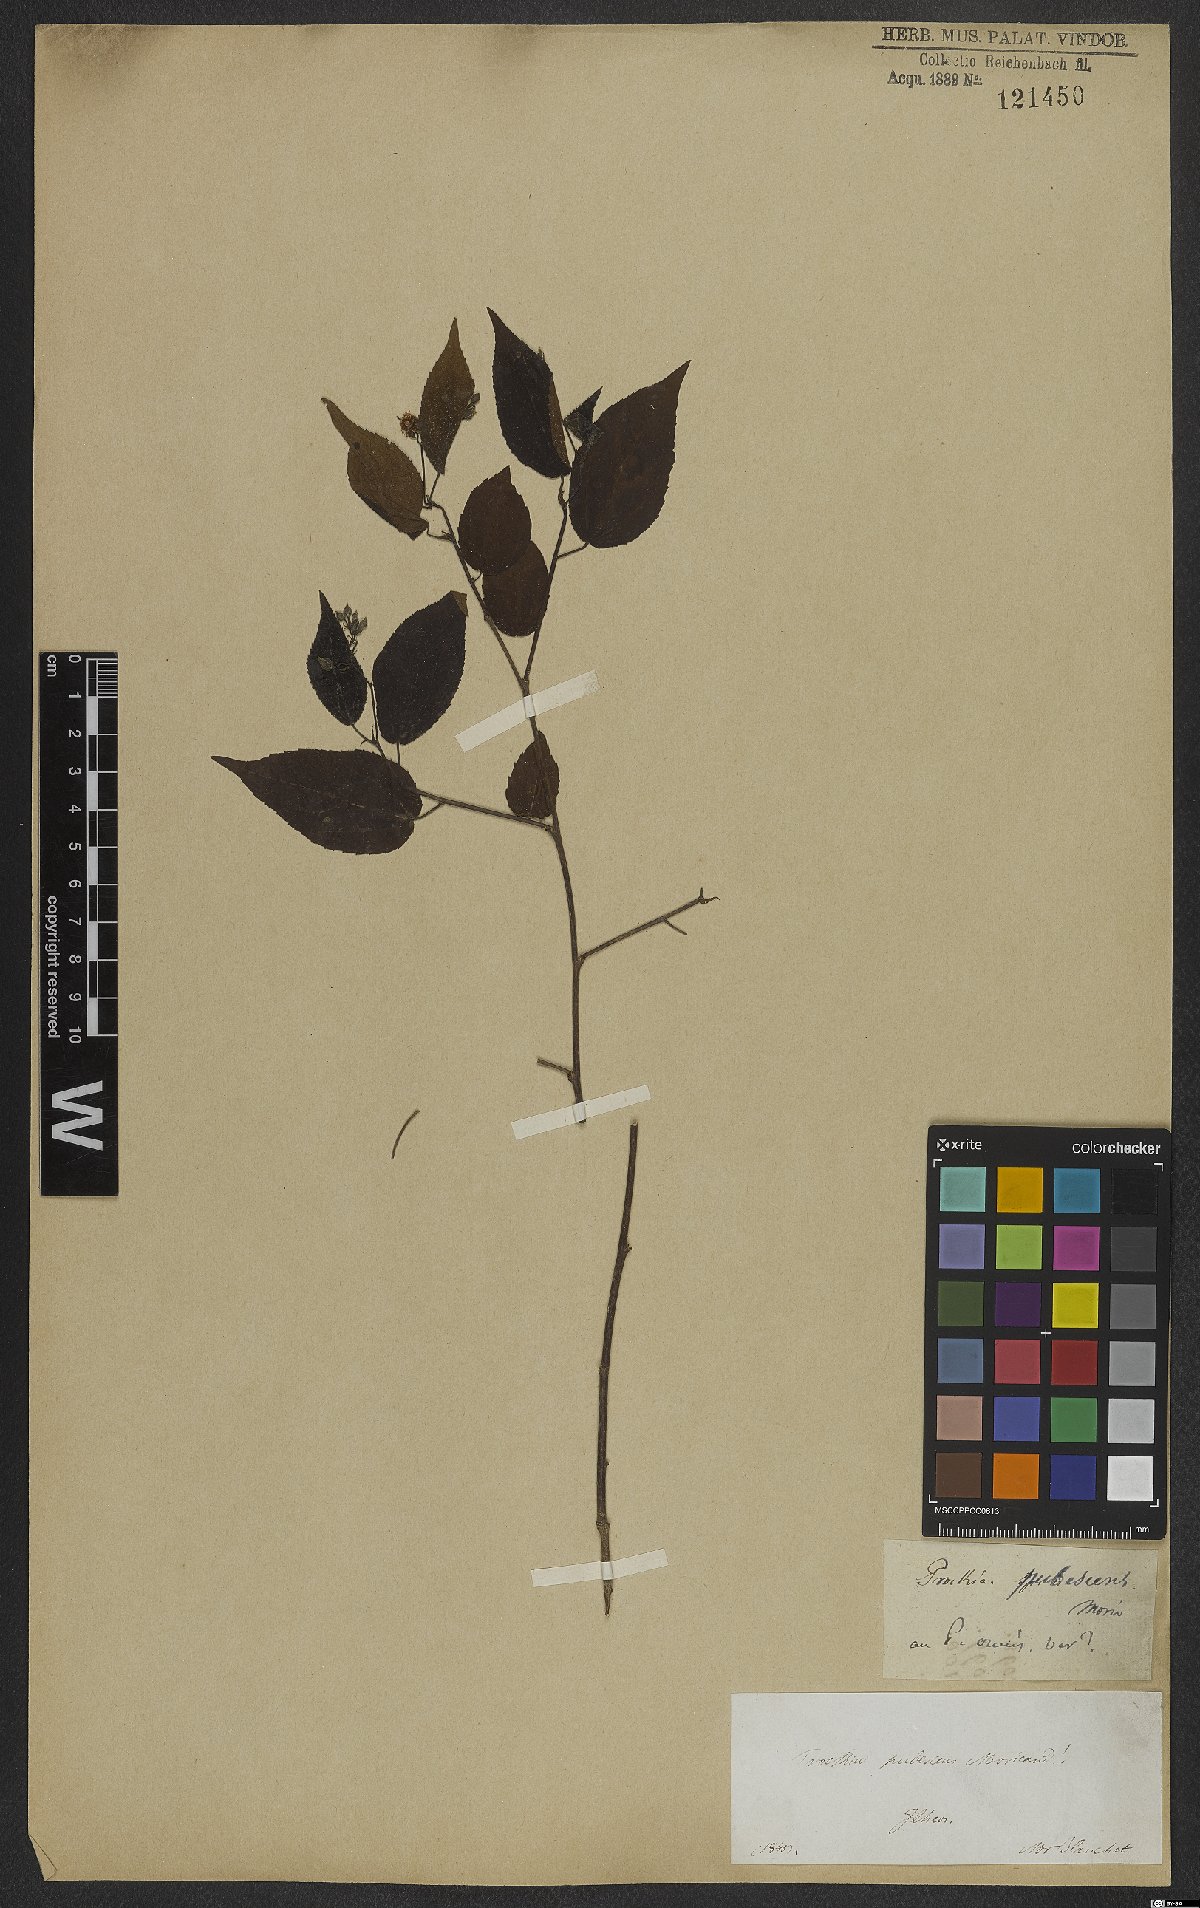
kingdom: Plantae
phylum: Tracheophyta
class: Magnoliopsida
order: Malvales
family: Tiliaceae
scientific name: Tiliaceae
